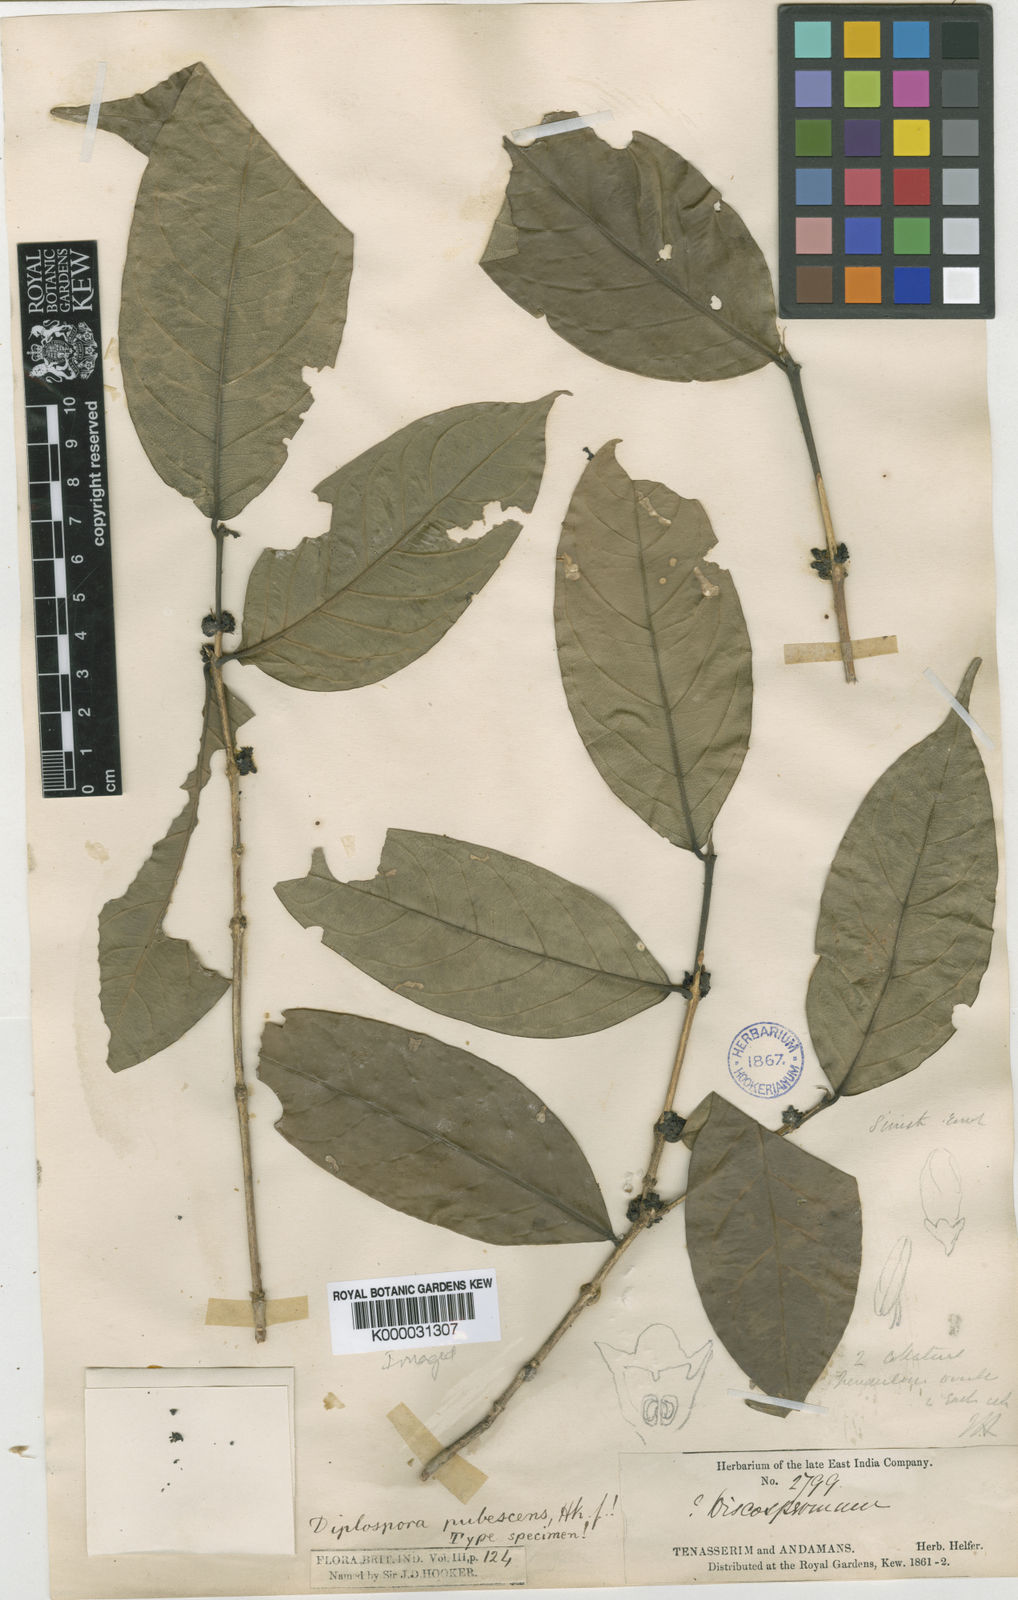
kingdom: Plantae
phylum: Tracheophyta
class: Magnoliopsida
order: Gentianales
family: Rubiaceae
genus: Diplospora
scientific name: Diplospora
